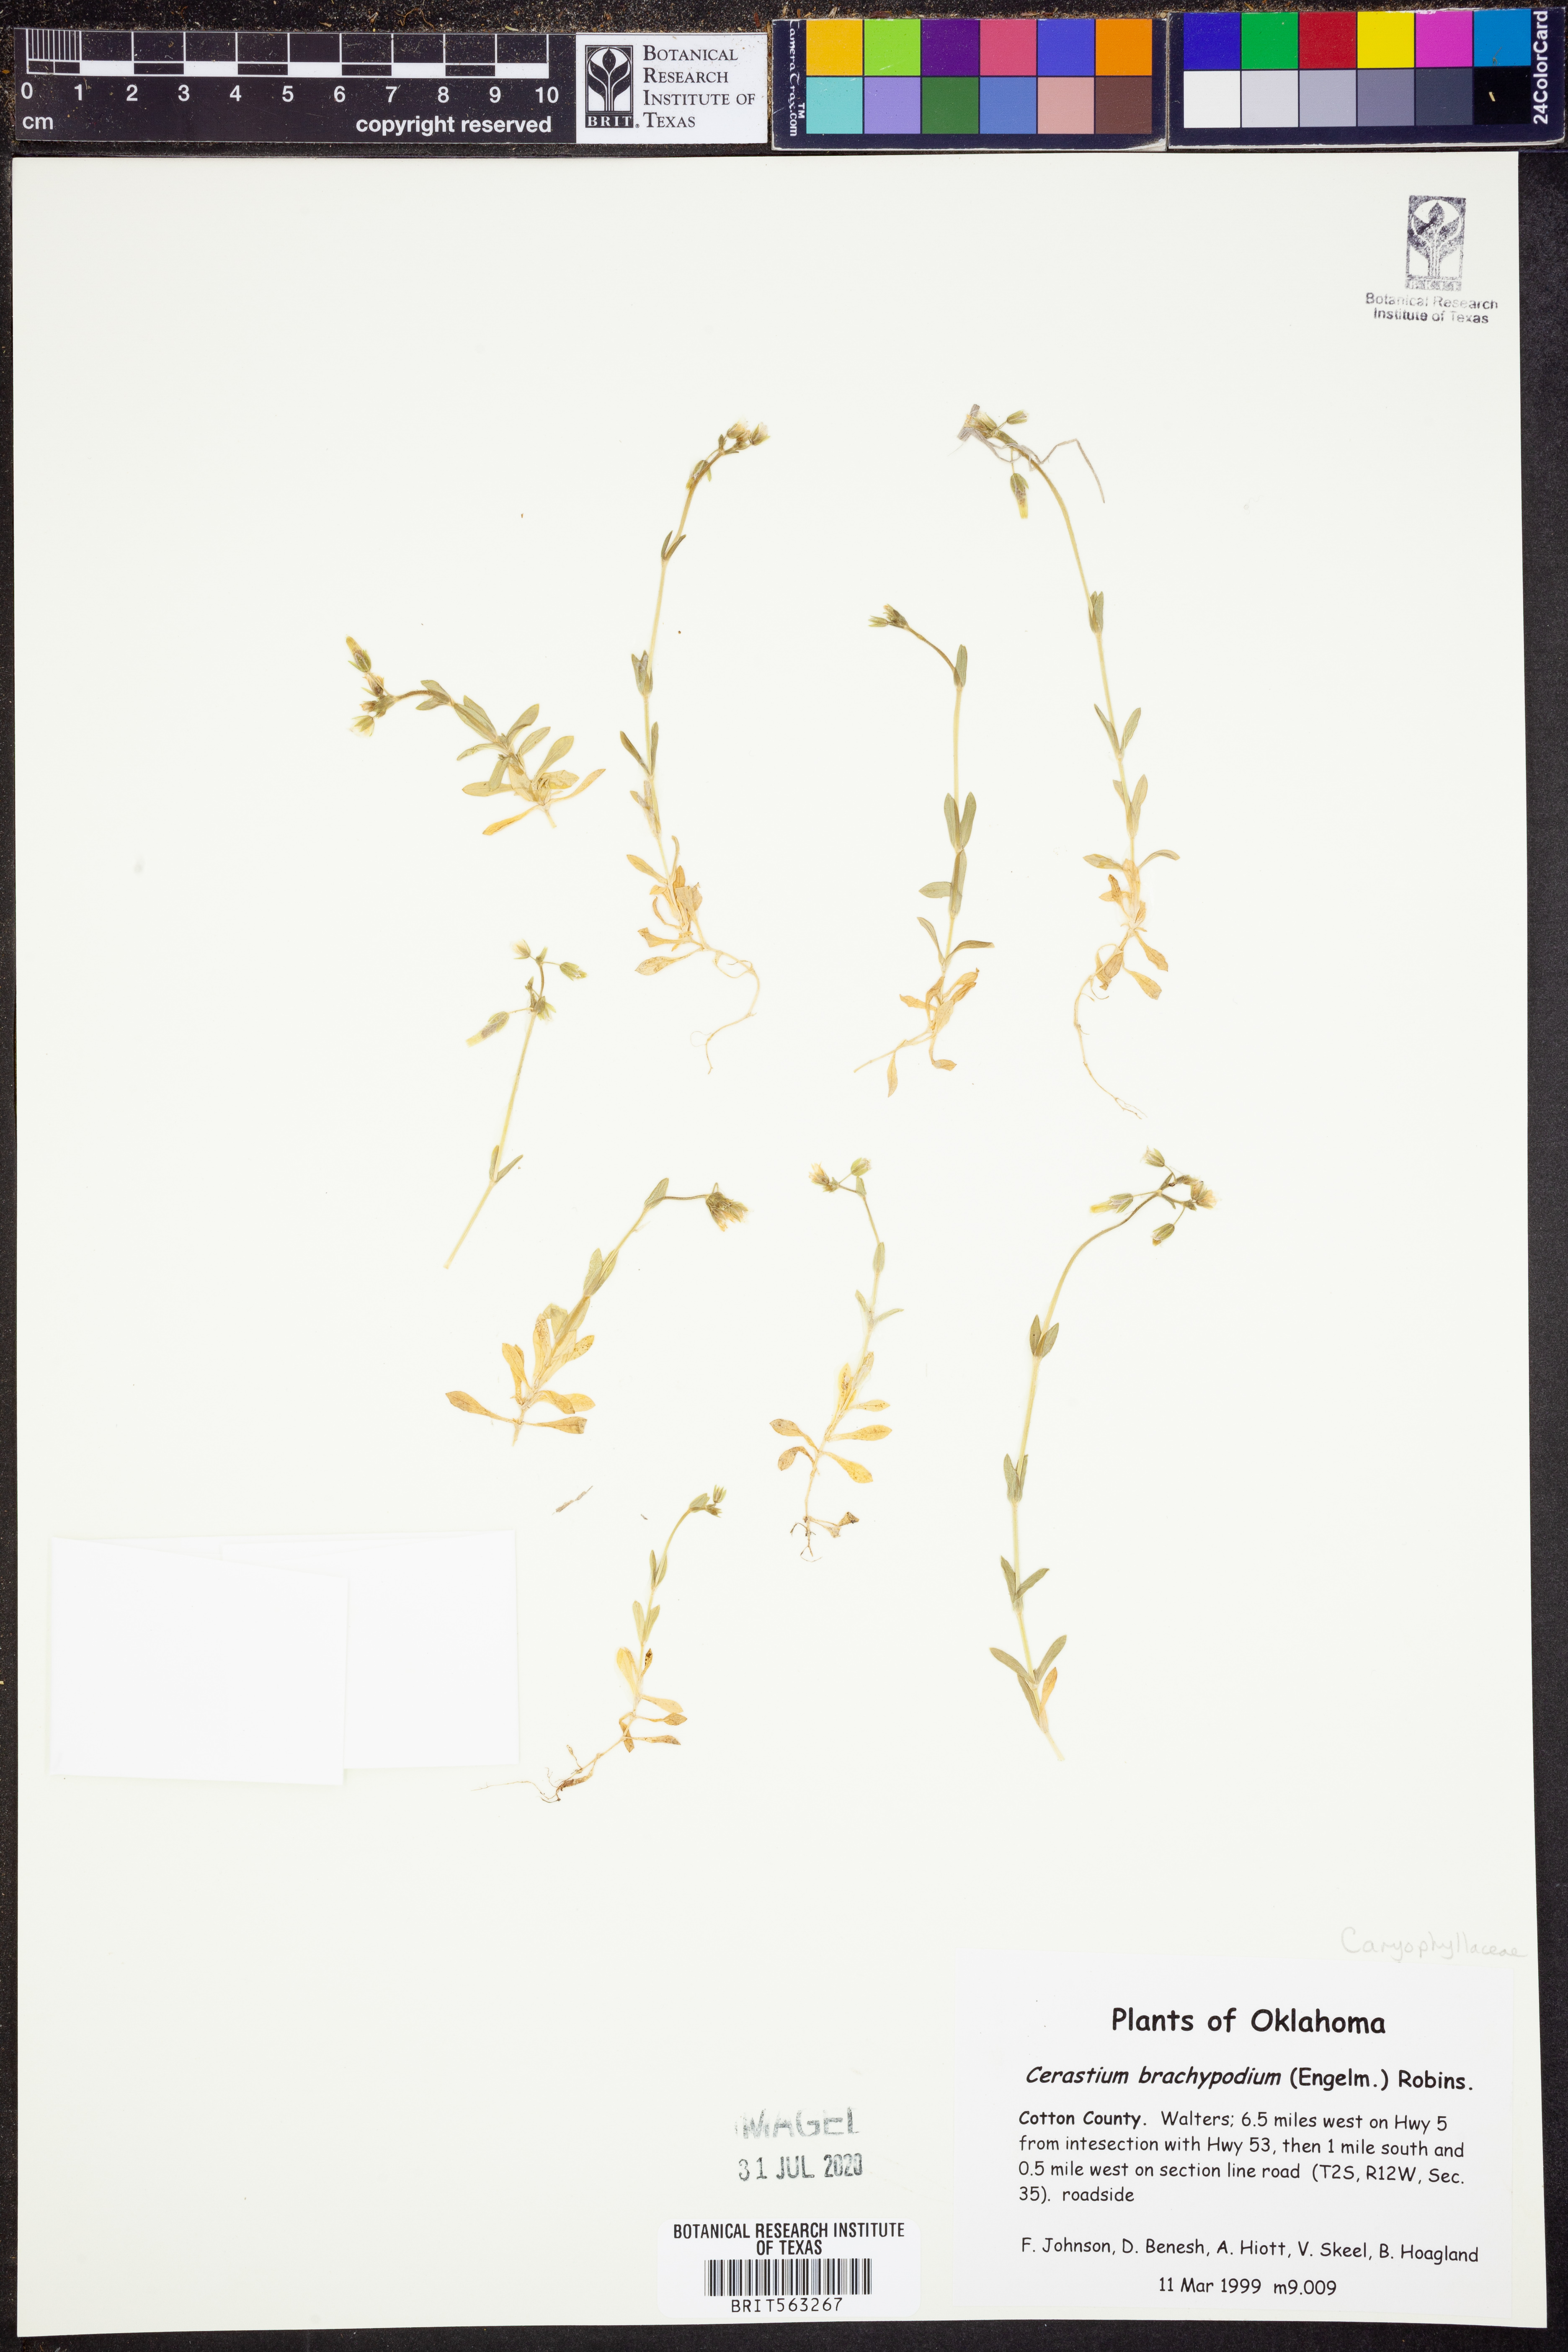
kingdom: Plantae
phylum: Tracheophyta
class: Magnoliopsida
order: Caryophyllales
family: Caryophyllaceae
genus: Cerastium
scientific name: Cerastium brachypodum
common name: Short-pedicelled nodding chickweed
